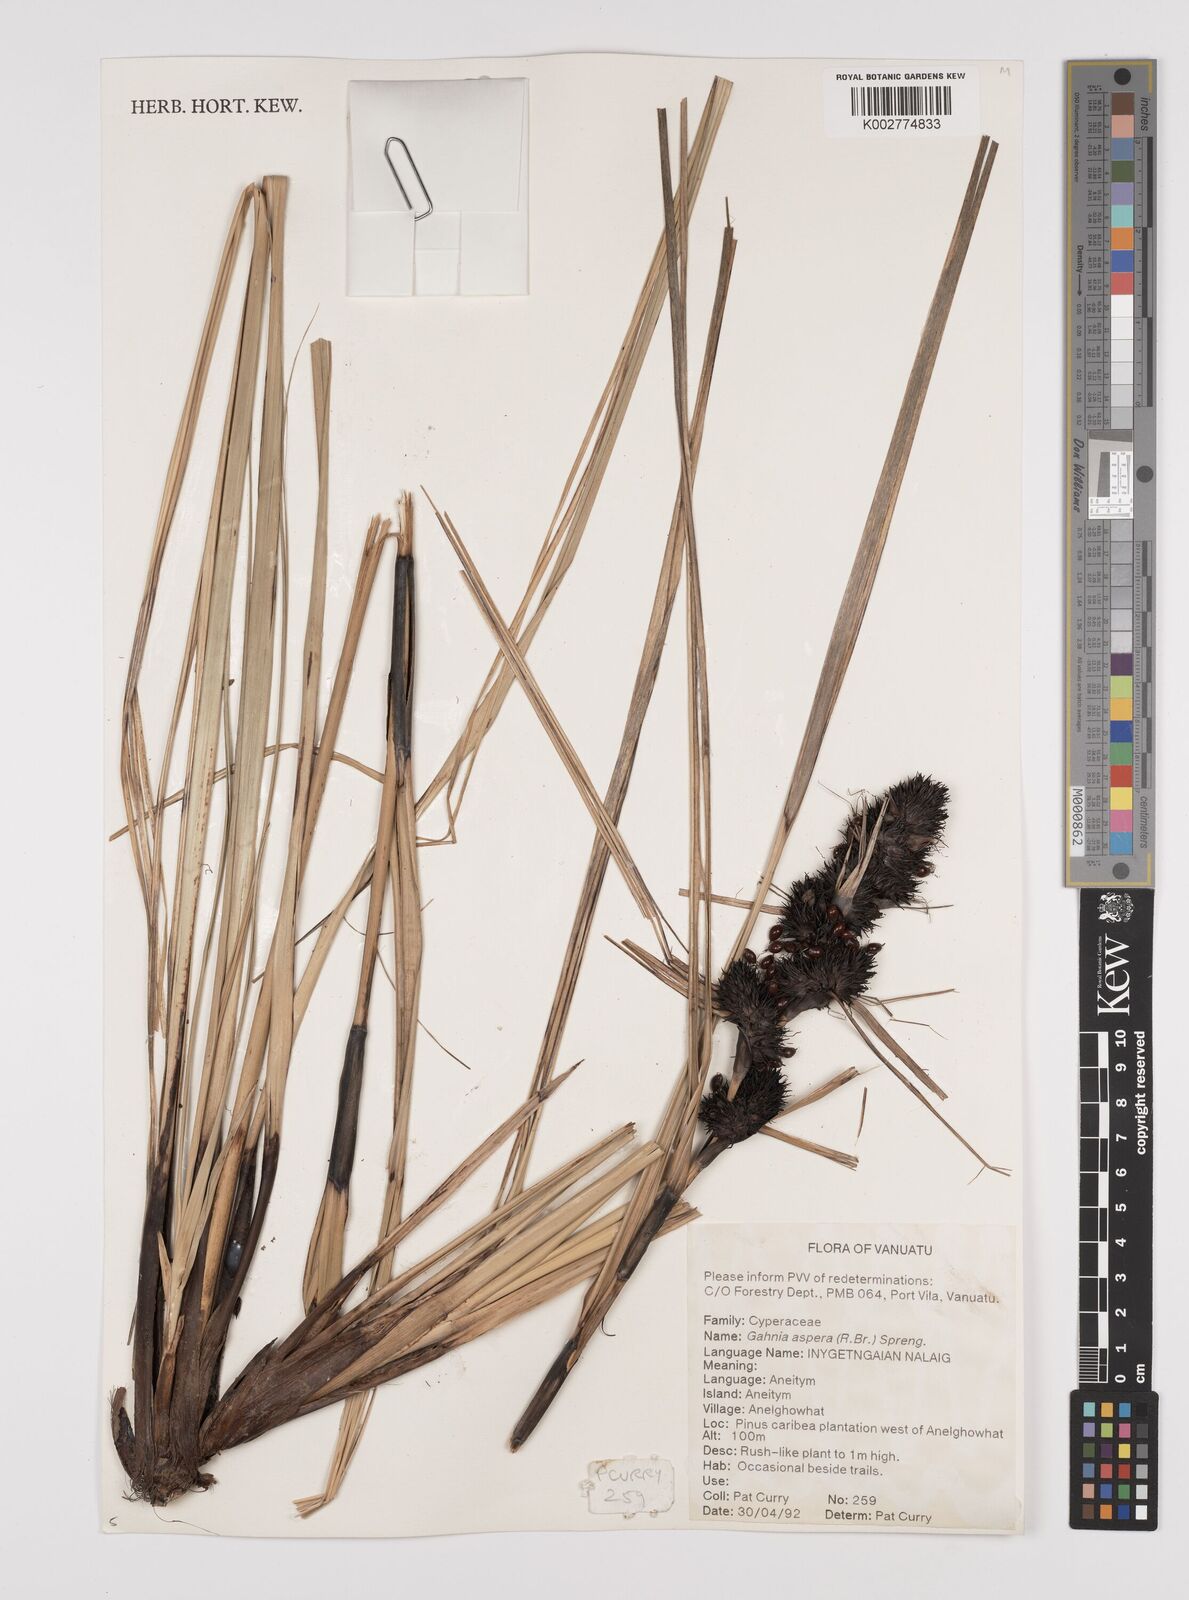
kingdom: Plantae
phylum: Tracheophyta
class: Liliopsida
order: Poales
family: Cyperaceae
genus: Gahnia
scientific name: Gahnia aspera
